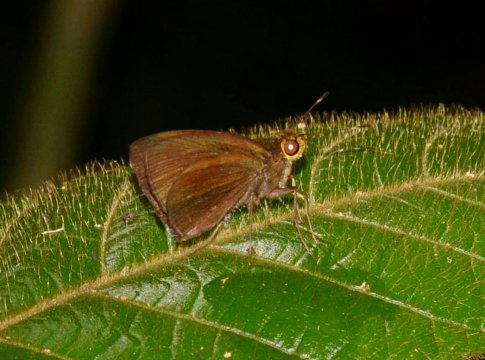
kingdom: Animalia
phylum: Arthropoda
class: Insecta
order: Lepidoptera
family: Hesperiidae
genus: Thargella
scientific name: Thargella caura
